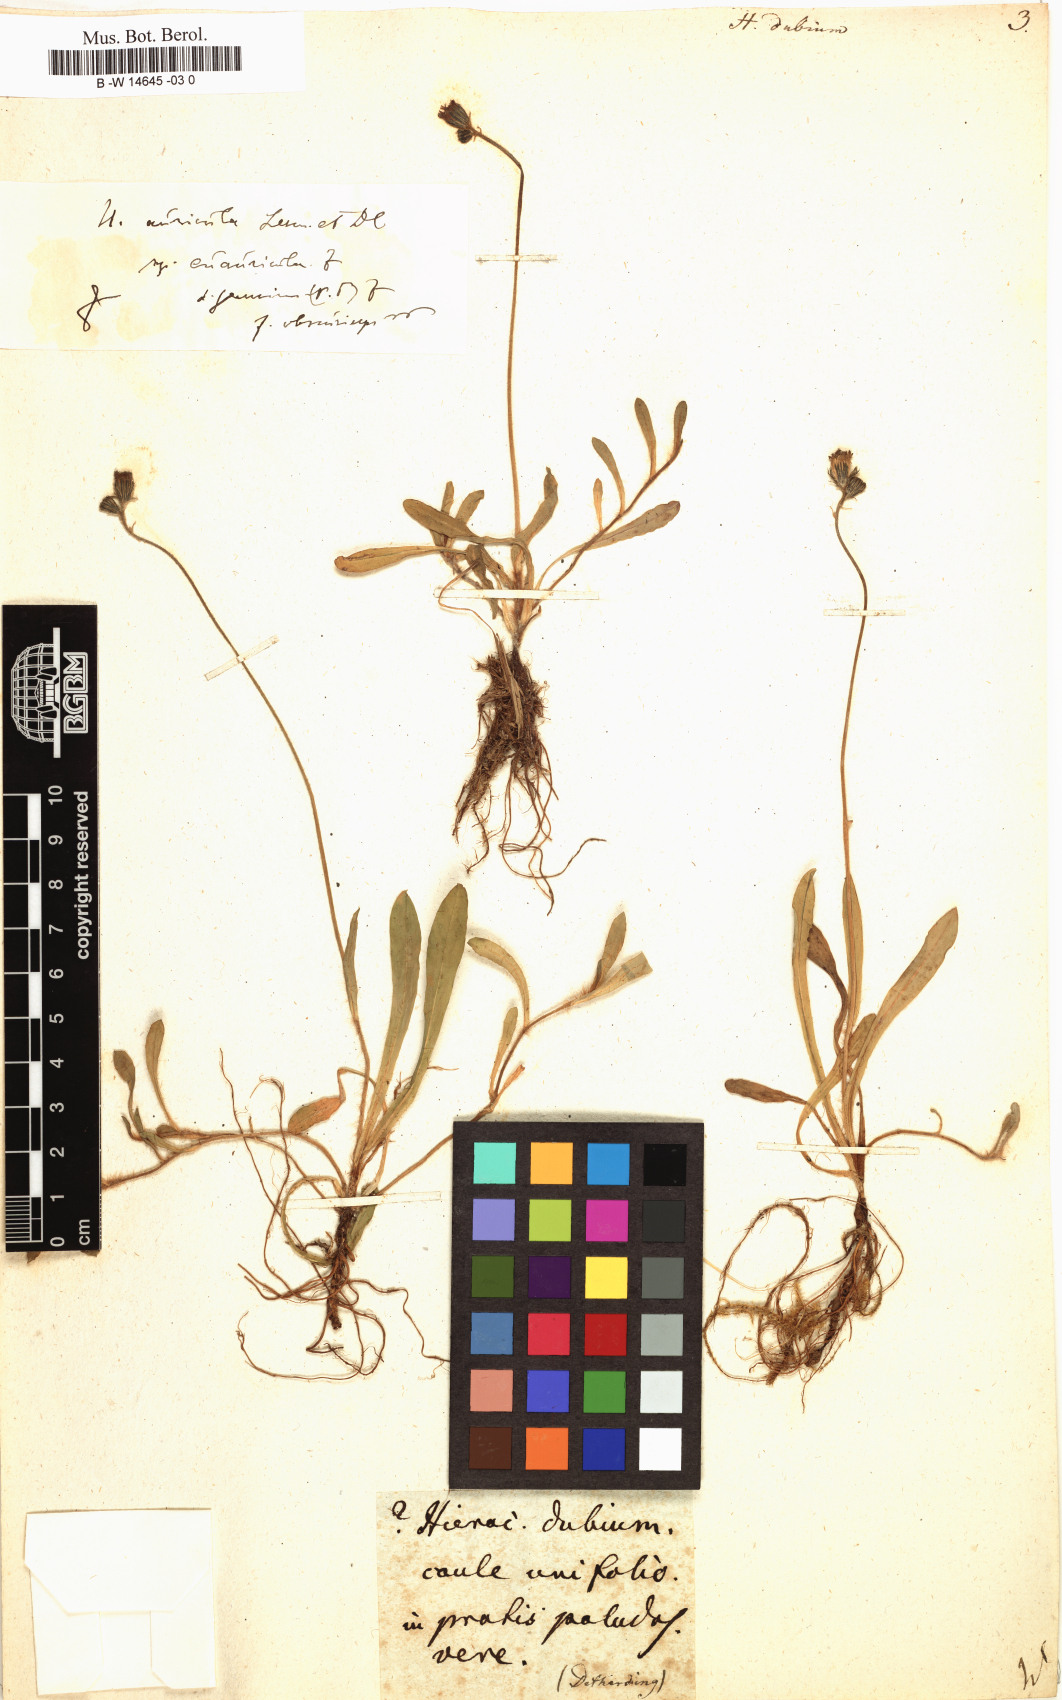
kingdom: Plantae
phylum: Tracheophyta
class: Magnoliopsida
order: Asterales
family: Asteraceae
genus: Hieracium
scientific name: Hieracium dubium
